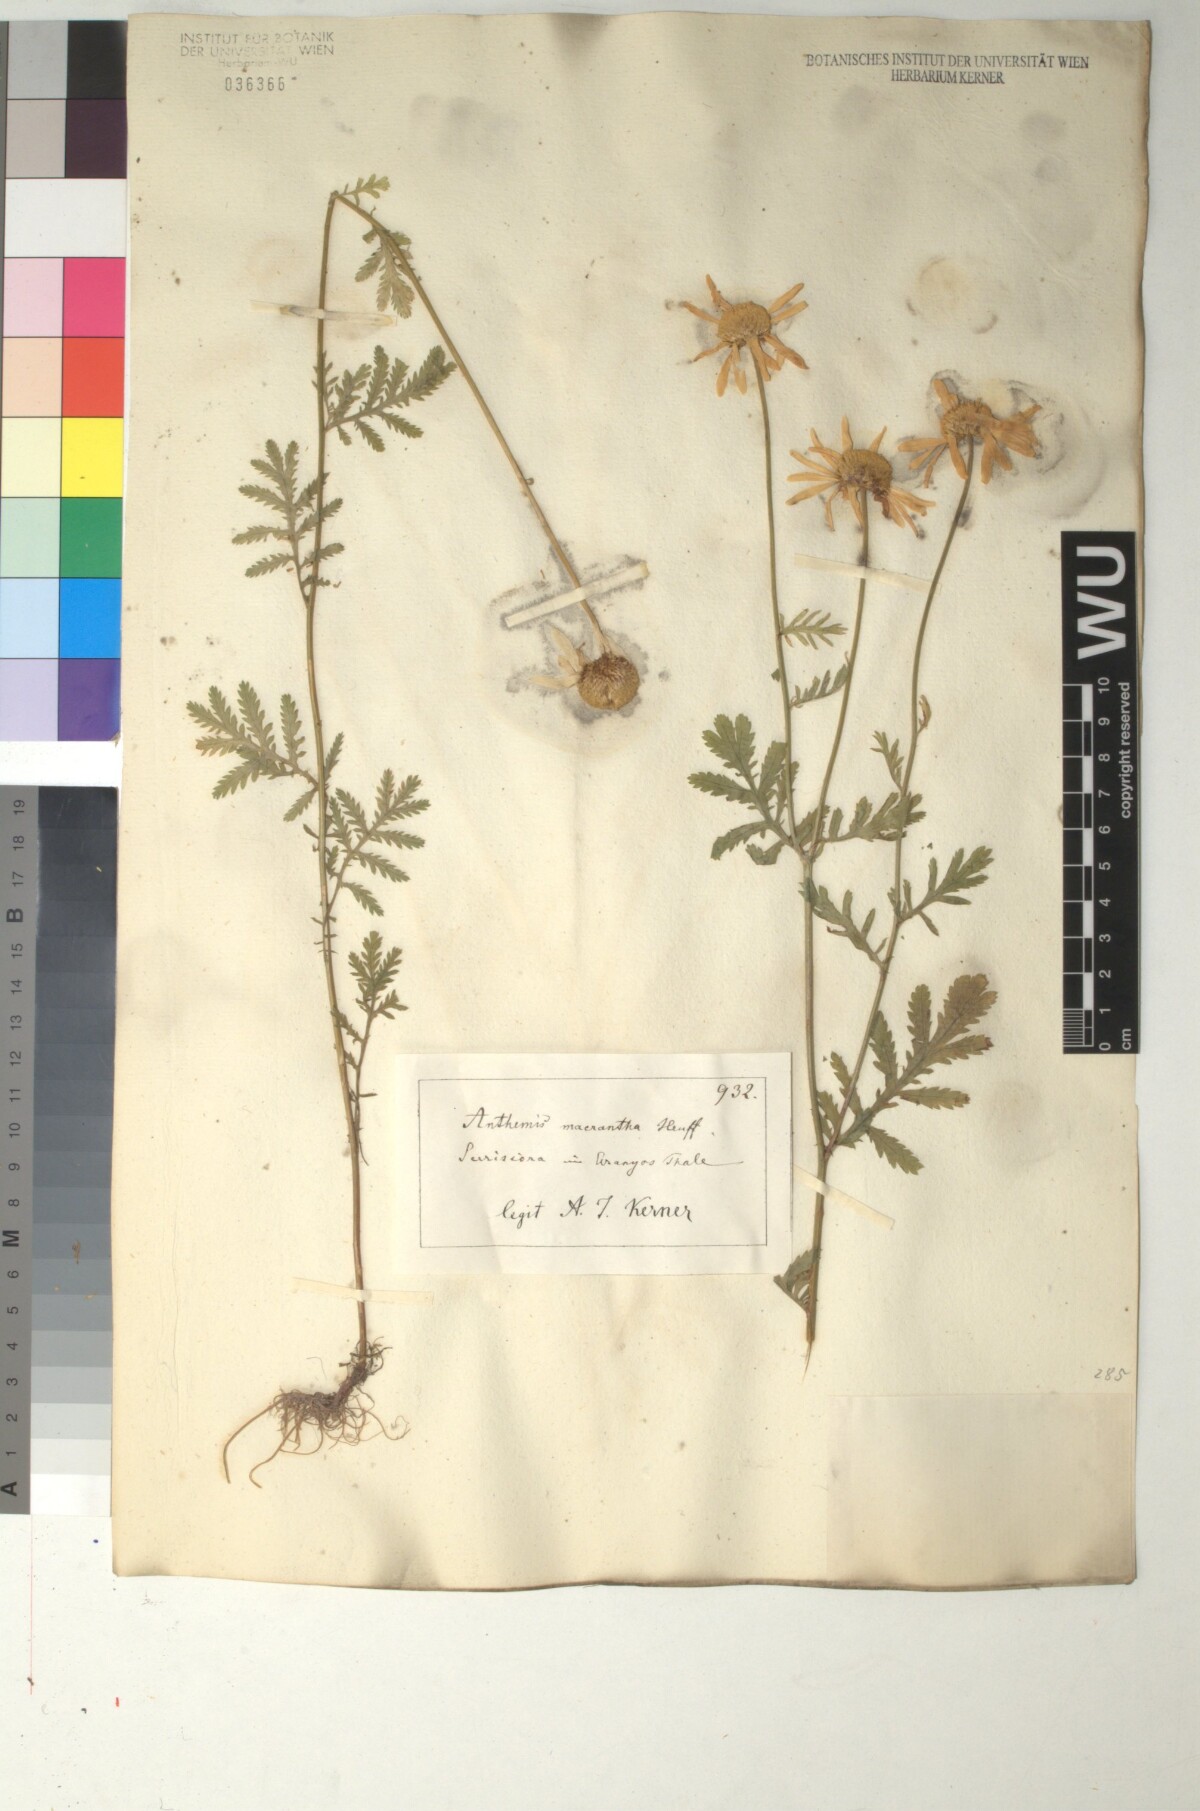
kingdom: Plantae
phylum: Tracheophyta
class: Magnoliopsida
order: Asterales
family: Asteraceae
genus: Cota
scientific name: Cota macrantha
